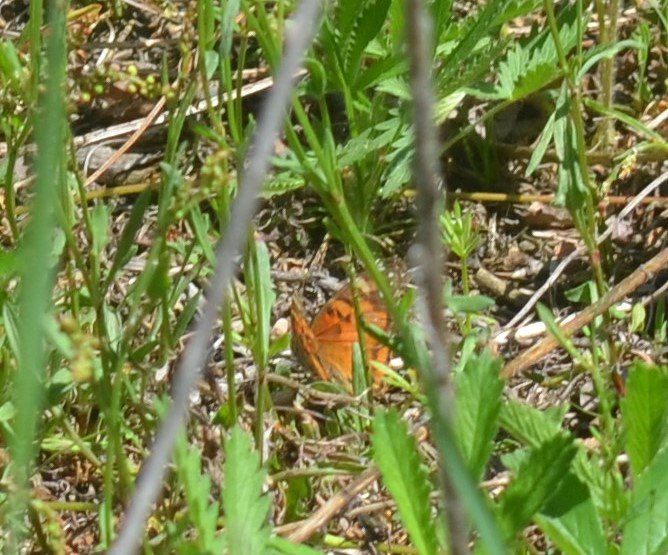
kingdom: Animalia
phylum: Arthropoda
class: Insecta
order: Lepidoptera
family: Nymphalidae
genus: Vanessa
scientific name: Vanessa virginiensis
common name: American Lady
